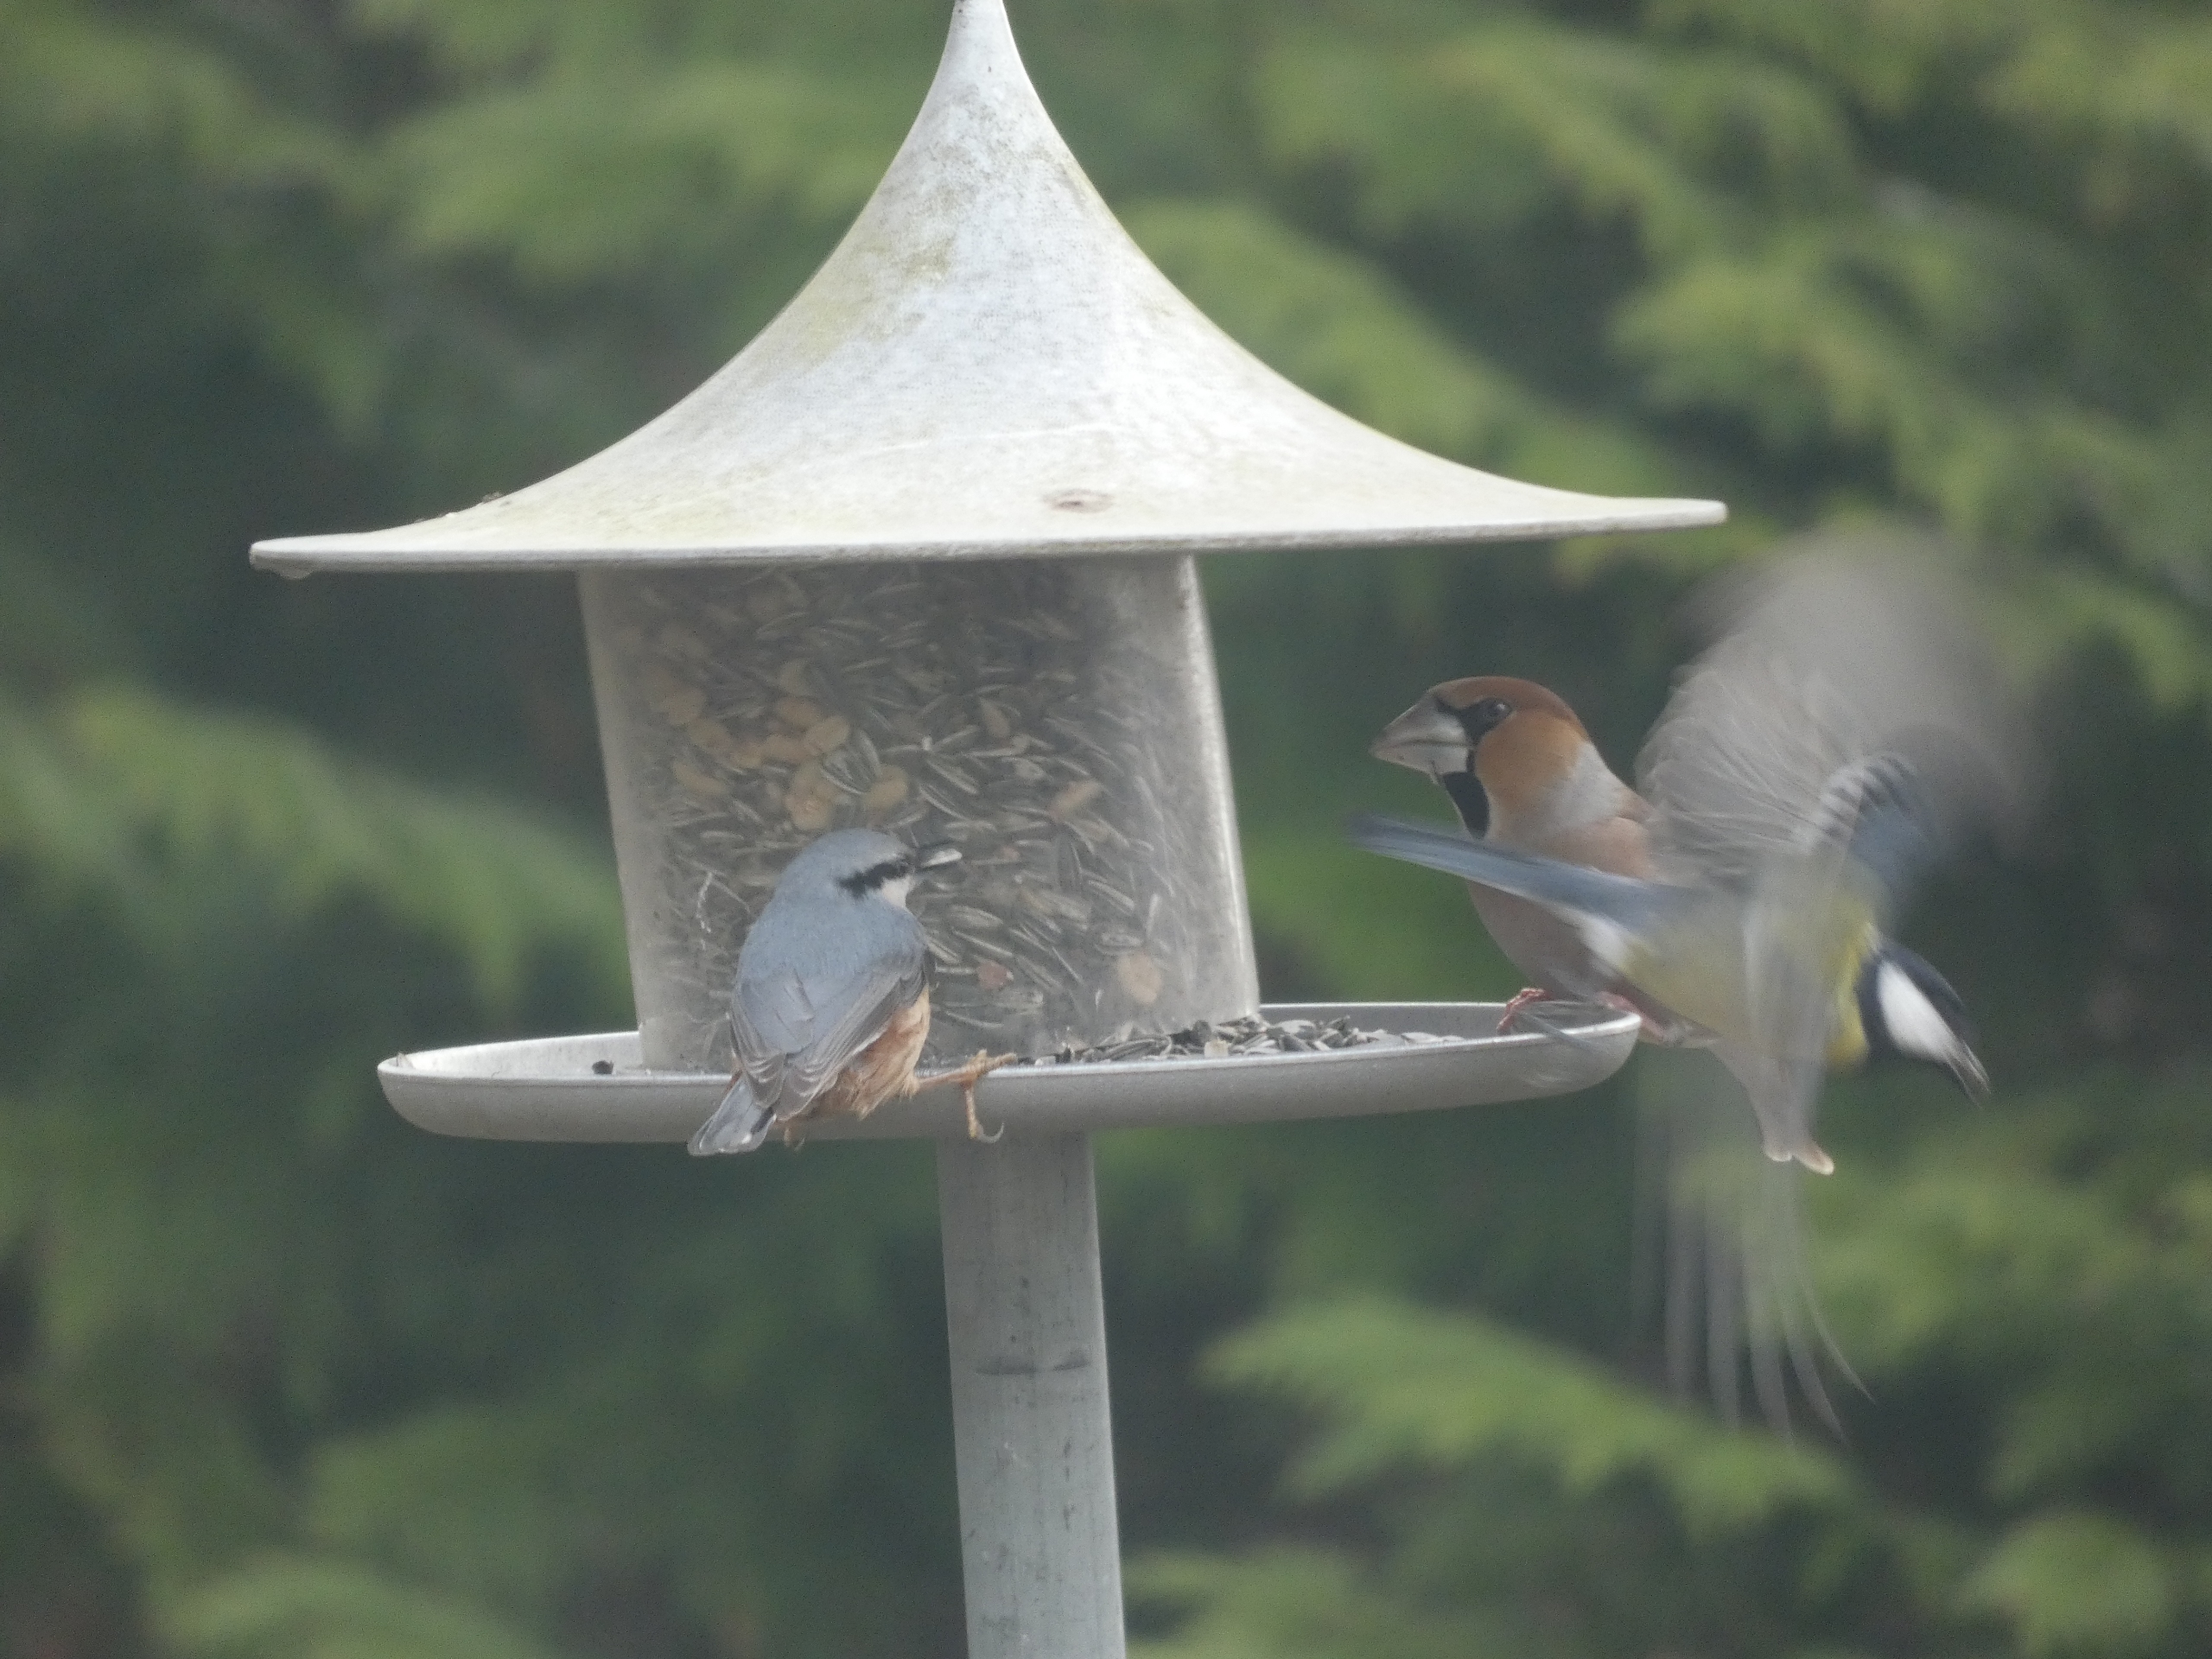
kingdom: Animalia
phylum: Chordata
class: Aves
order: Passeriformes
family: Sittidae
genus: Sitta
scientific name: Sitta europaea
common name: Spætmejse
